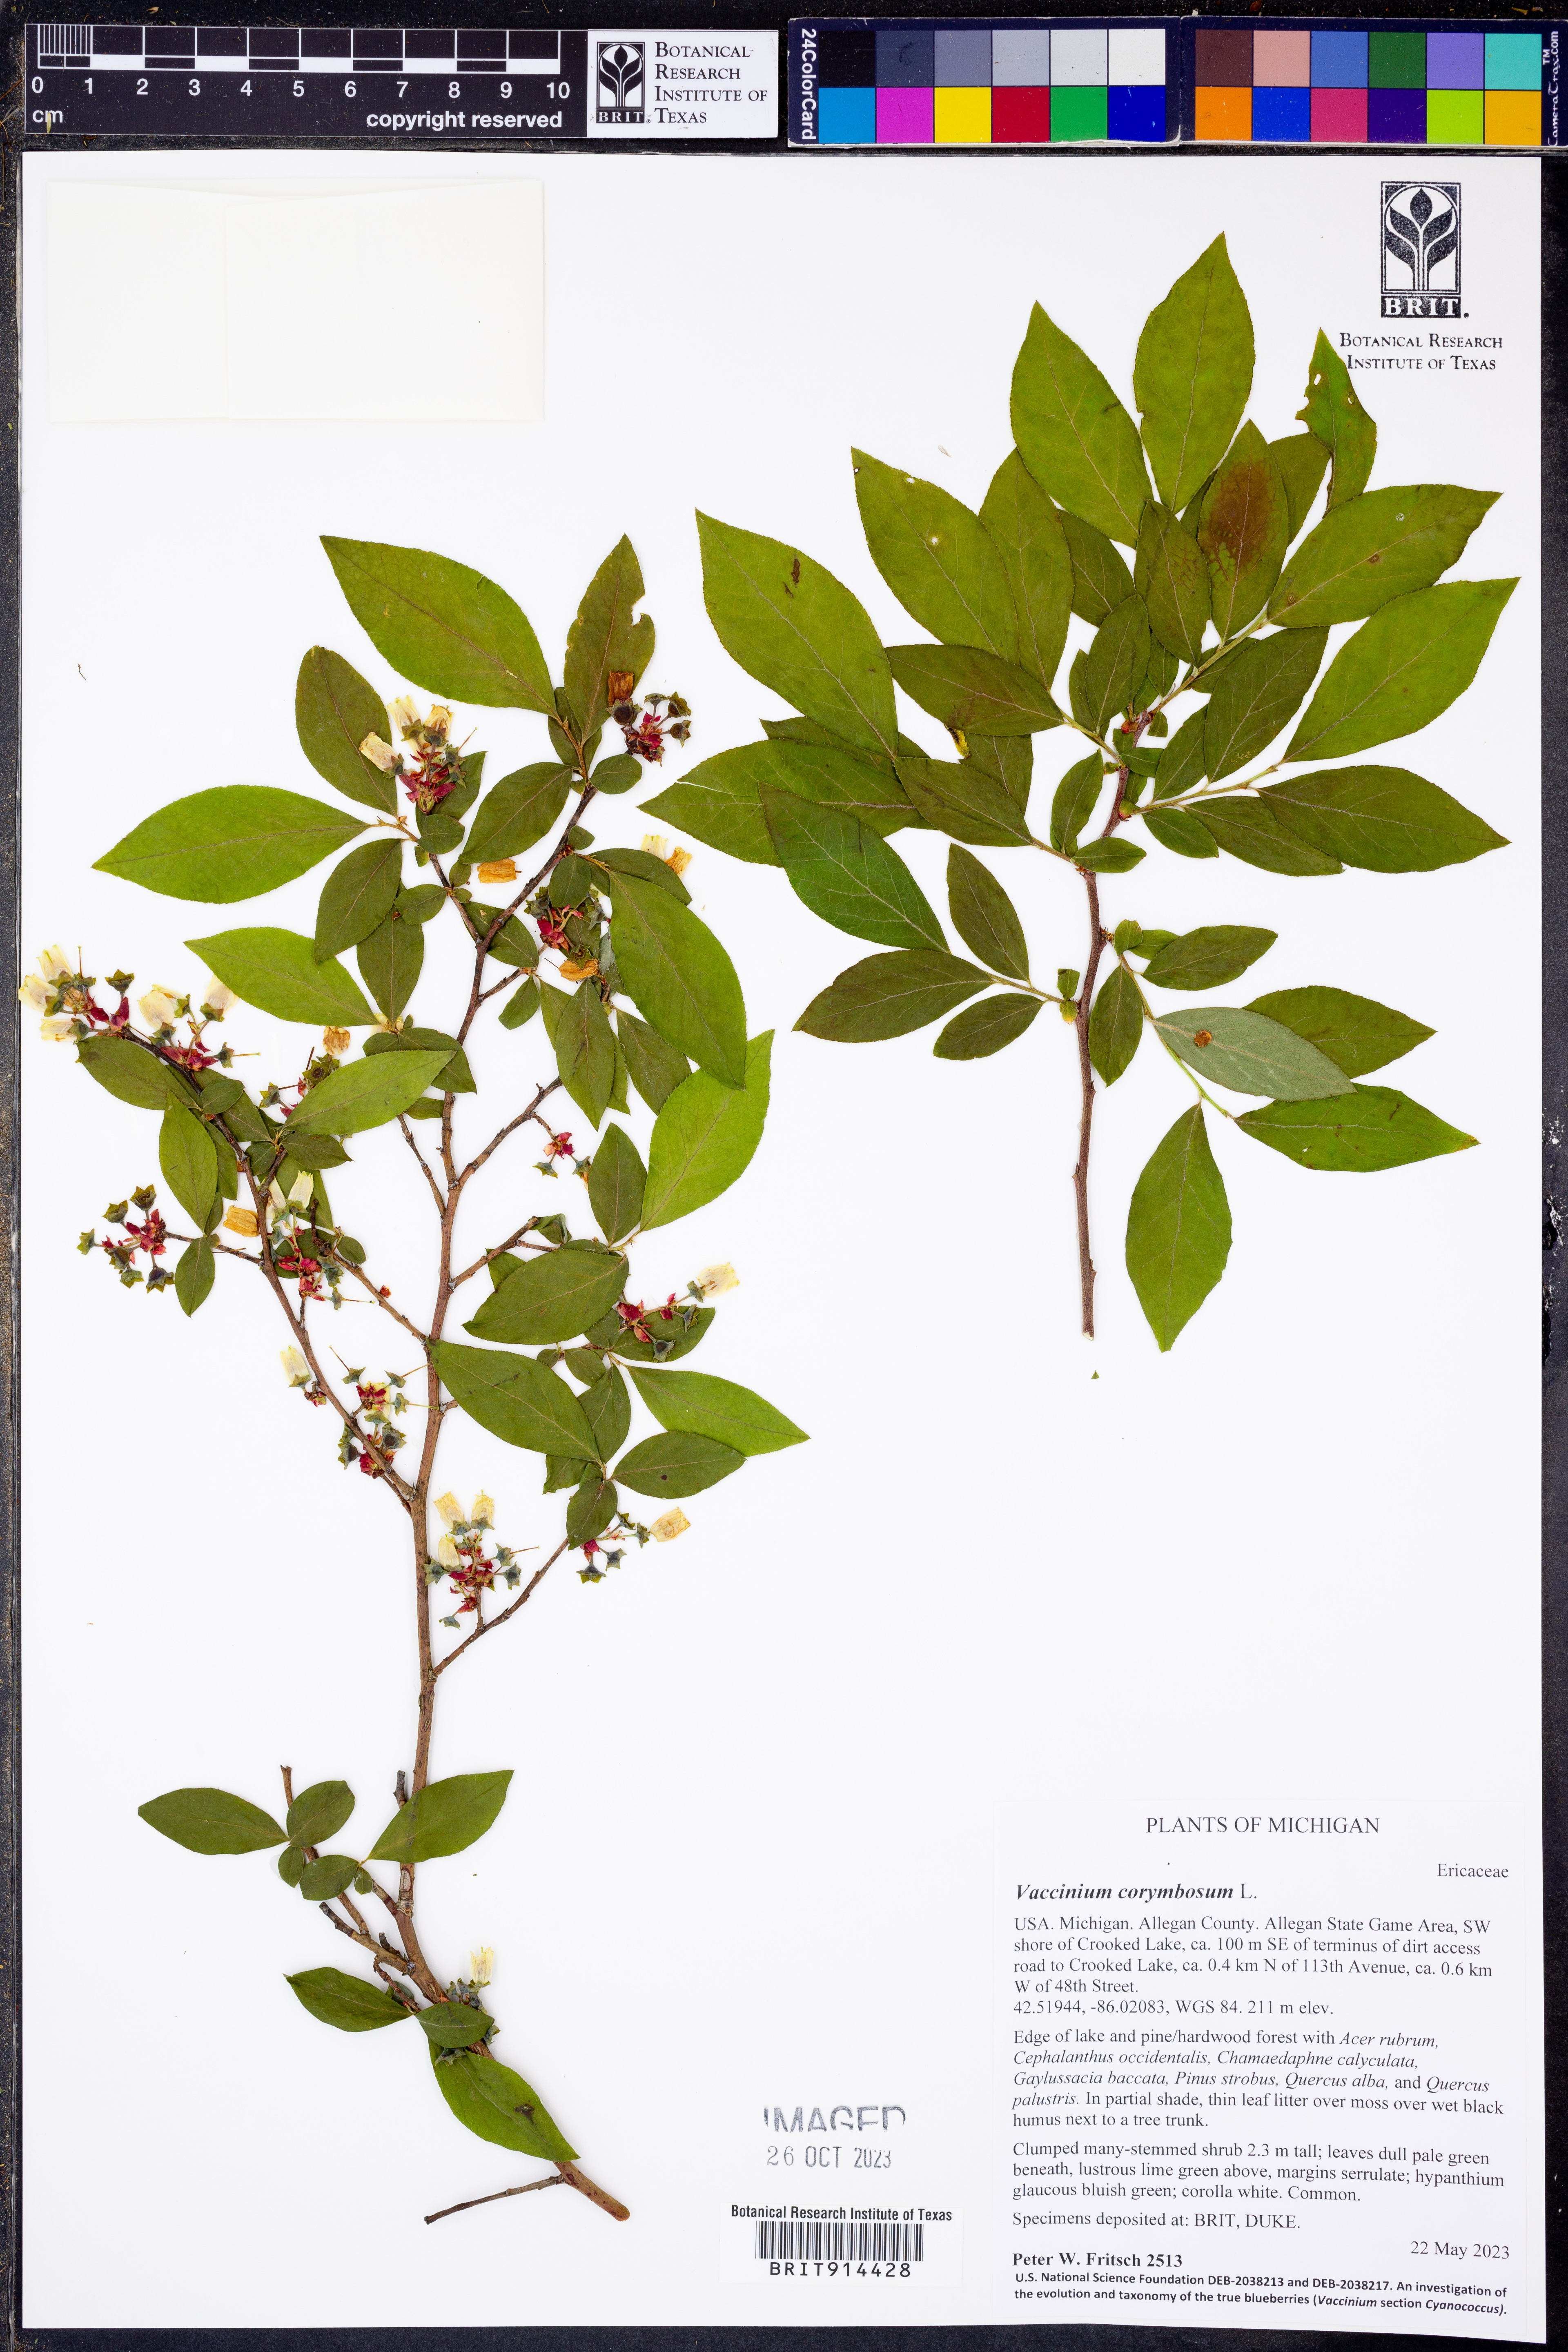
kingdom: Plantae
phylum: Tracheophyta
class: Magnoliopsida
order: Ericales
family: Ericaceae
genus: Vaccinium
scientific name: Vaccinium corymbosum
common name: Blueberry
